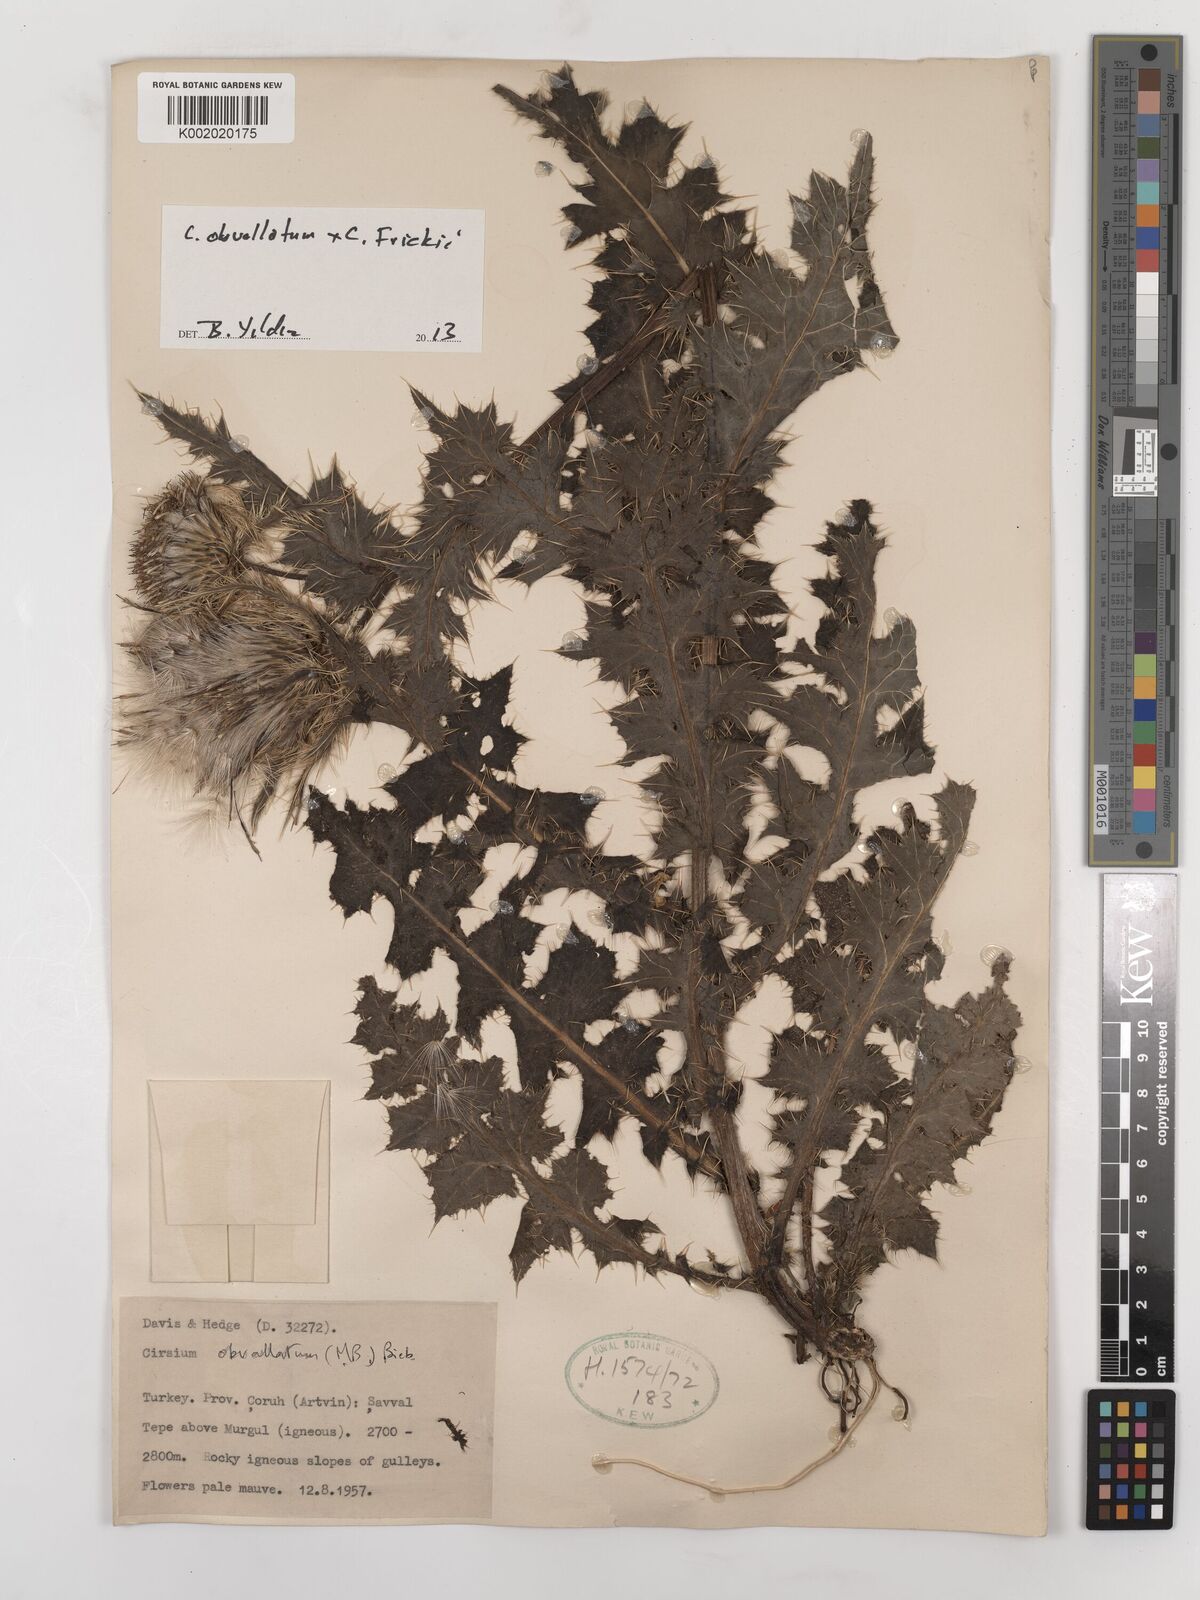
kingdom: Plantae
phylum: Tracheophyta
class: Magnoliopsida
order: Asterales
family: Asteraceae
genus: Cirsium
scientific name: Cirsium obvallatum
